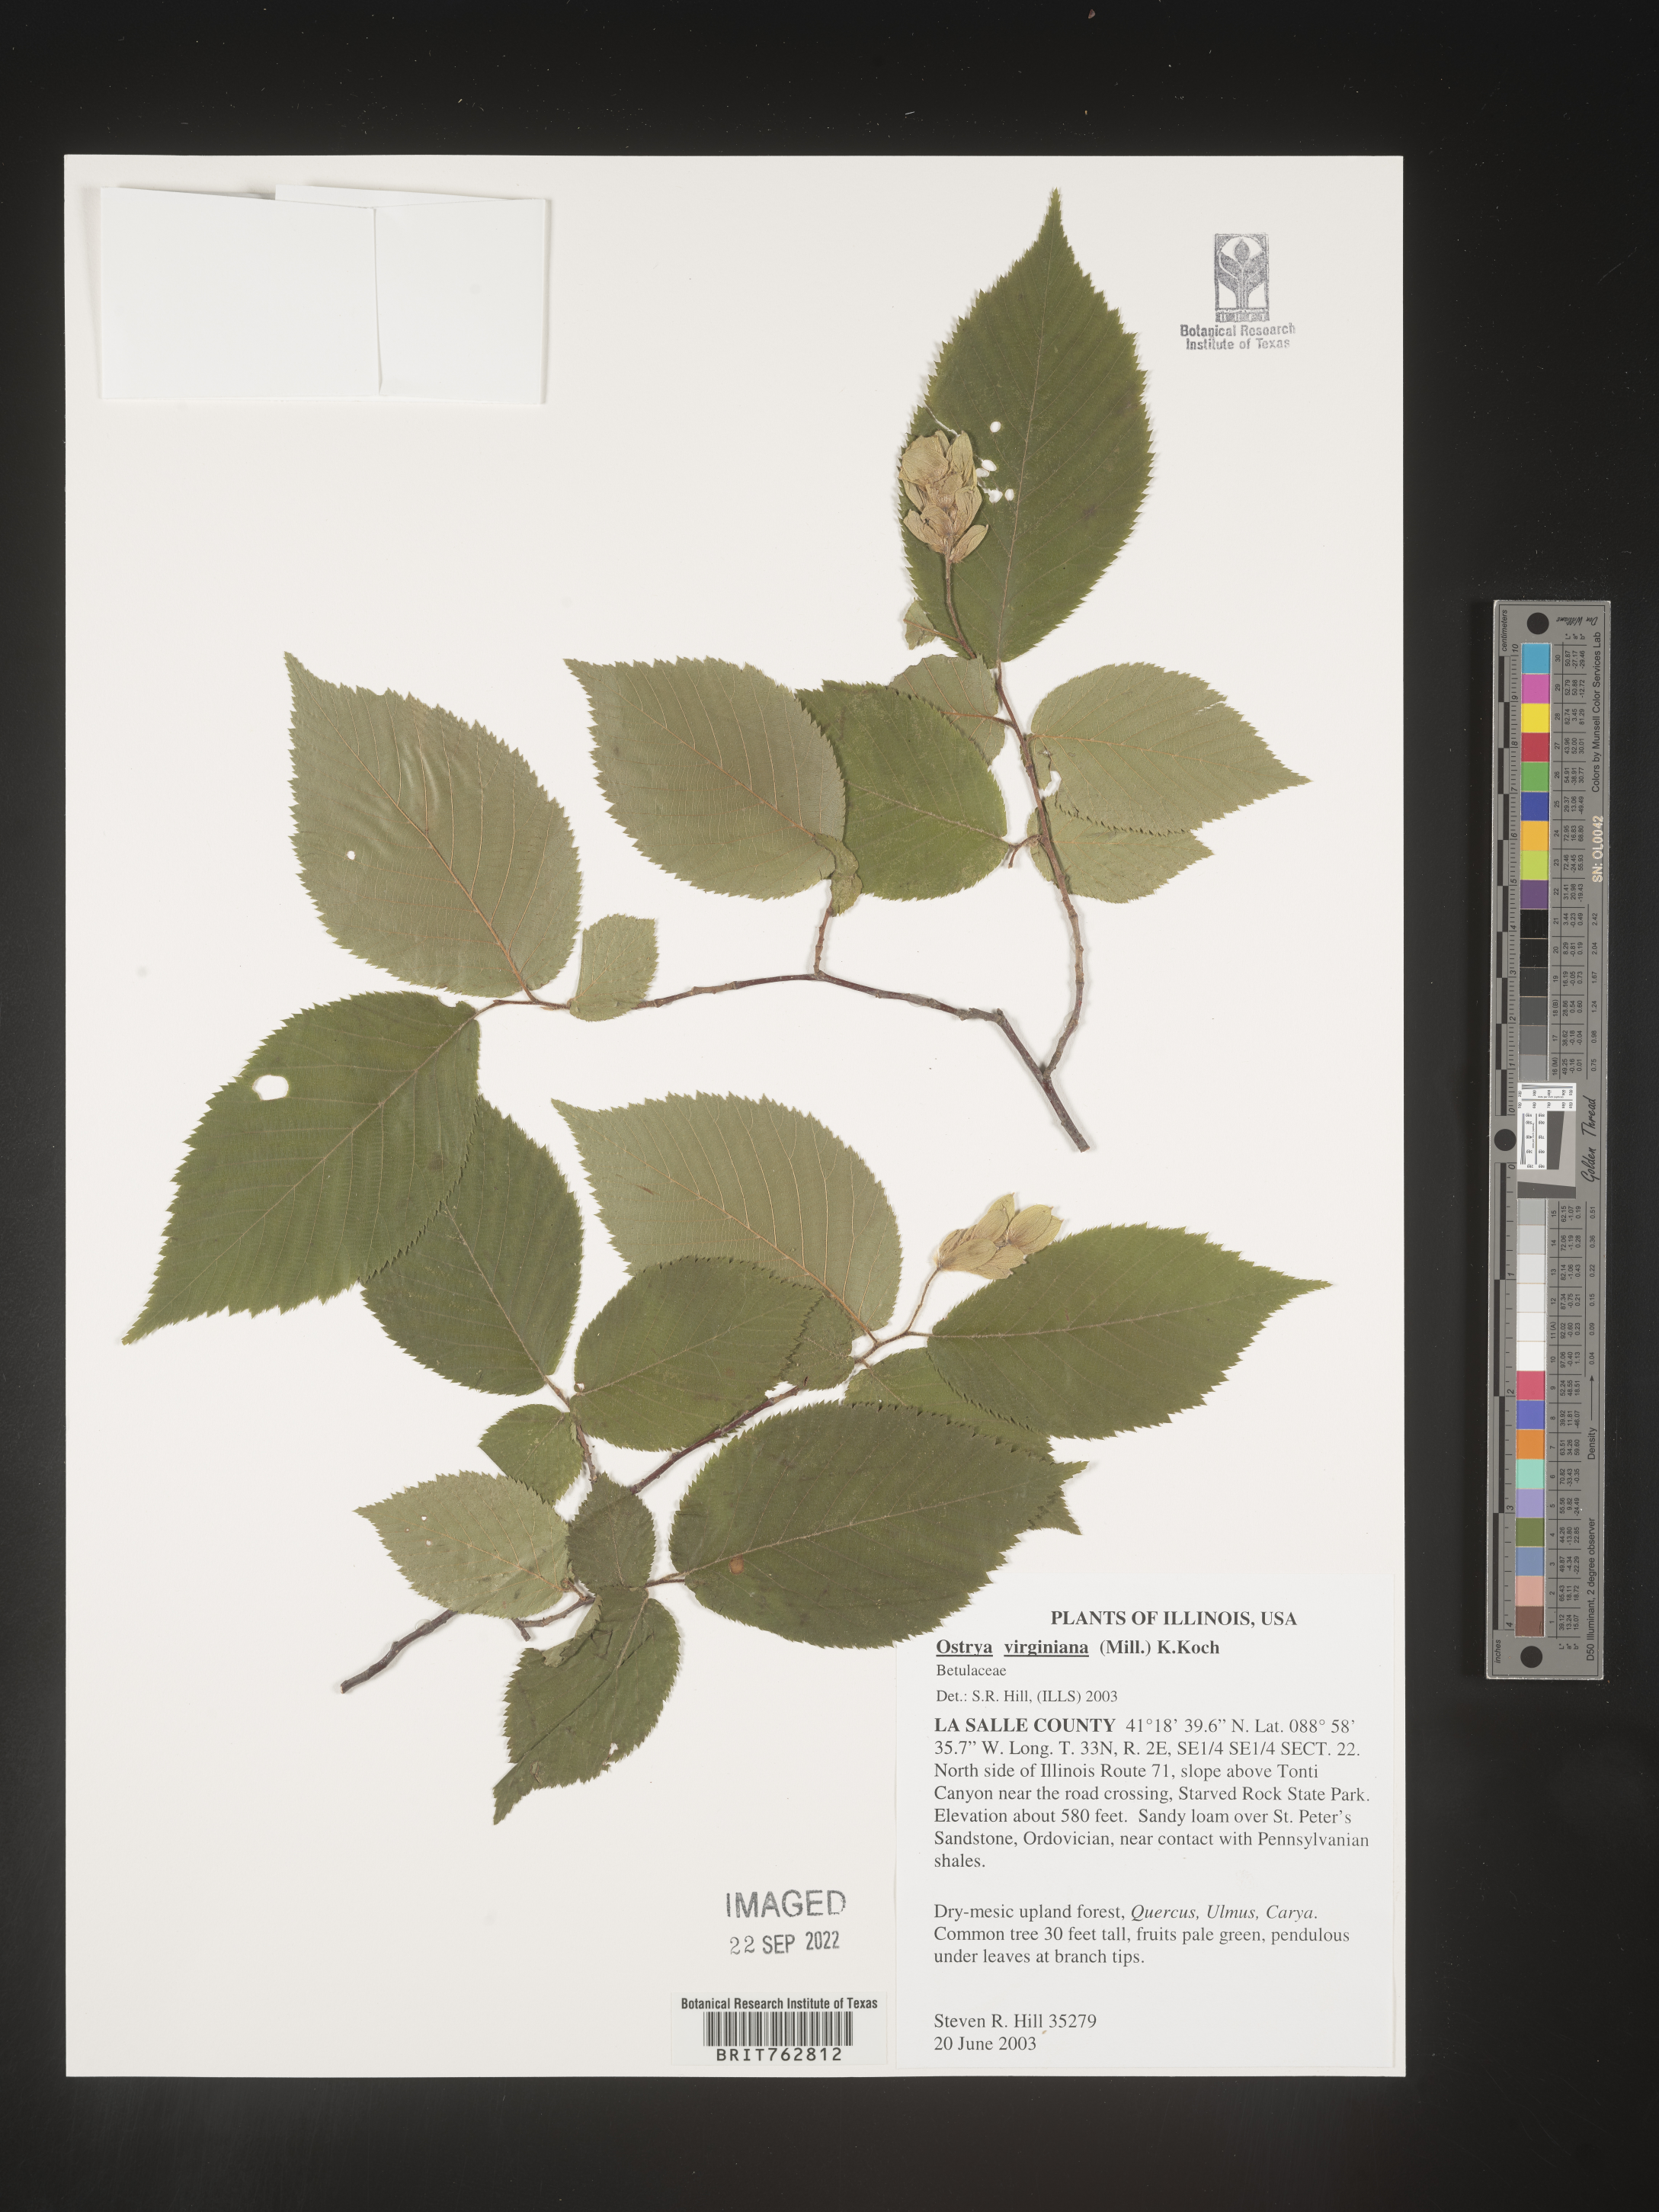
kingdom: Plantae
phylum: Tracheophyta
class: Magnoliopsida
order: Fagales
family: Betulaceae
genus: Ostrya
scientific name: Ostrya virginiana
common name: Ironwood
